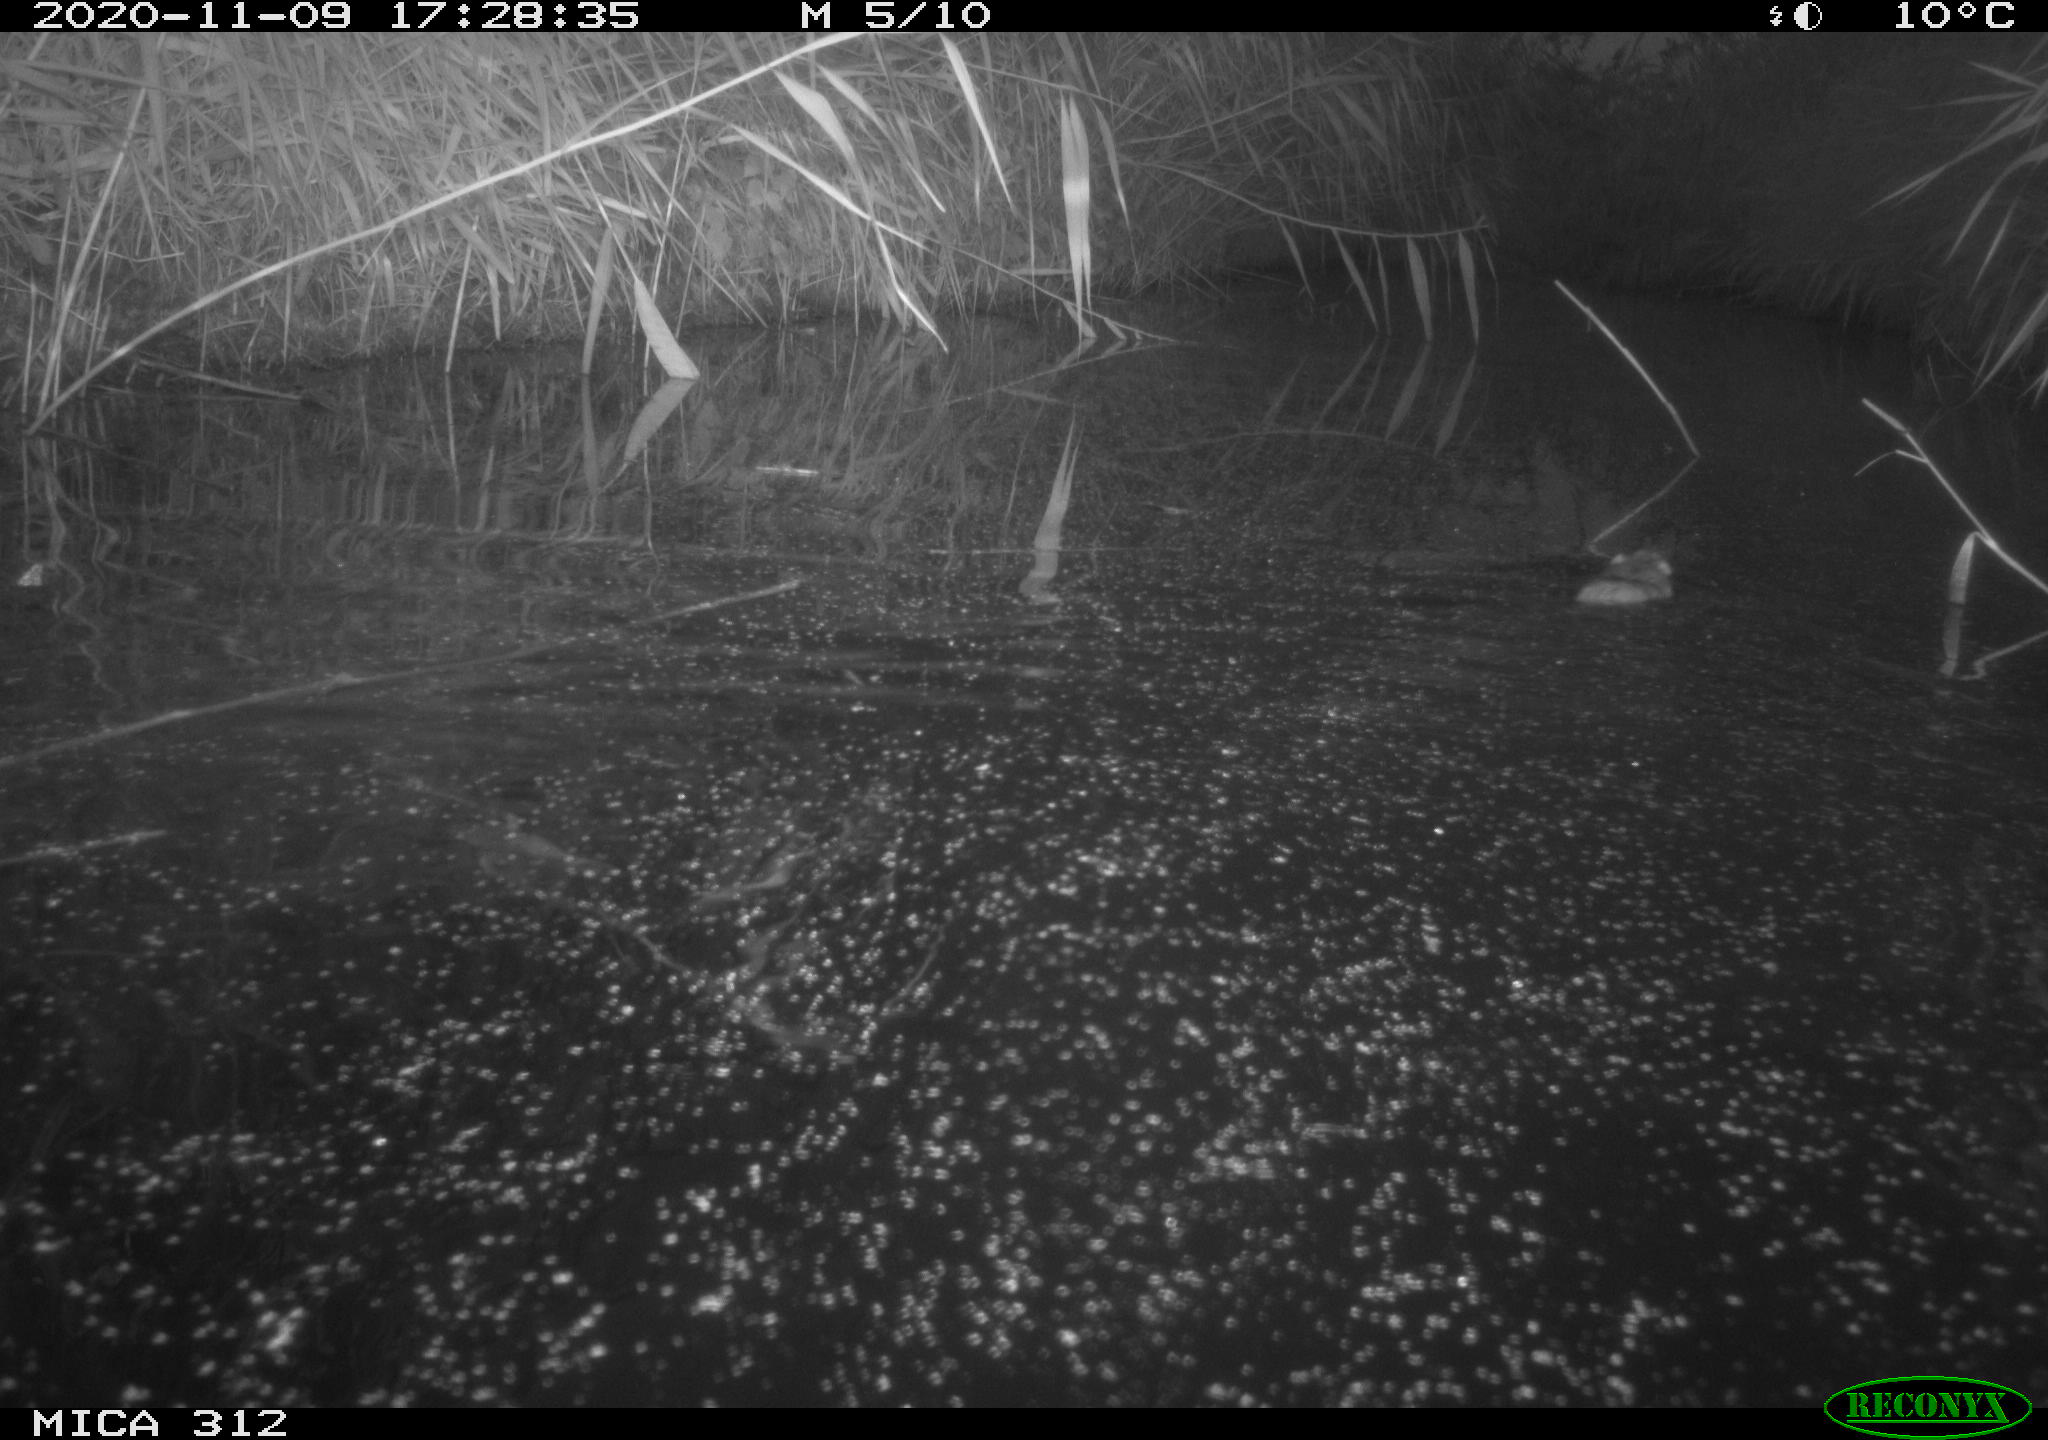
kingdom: Animalia
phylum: Chordata
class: Mammalia
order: Rodentia
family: Muridae
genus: Rattus
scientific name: Rattus norvegicus
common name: Brown rat
